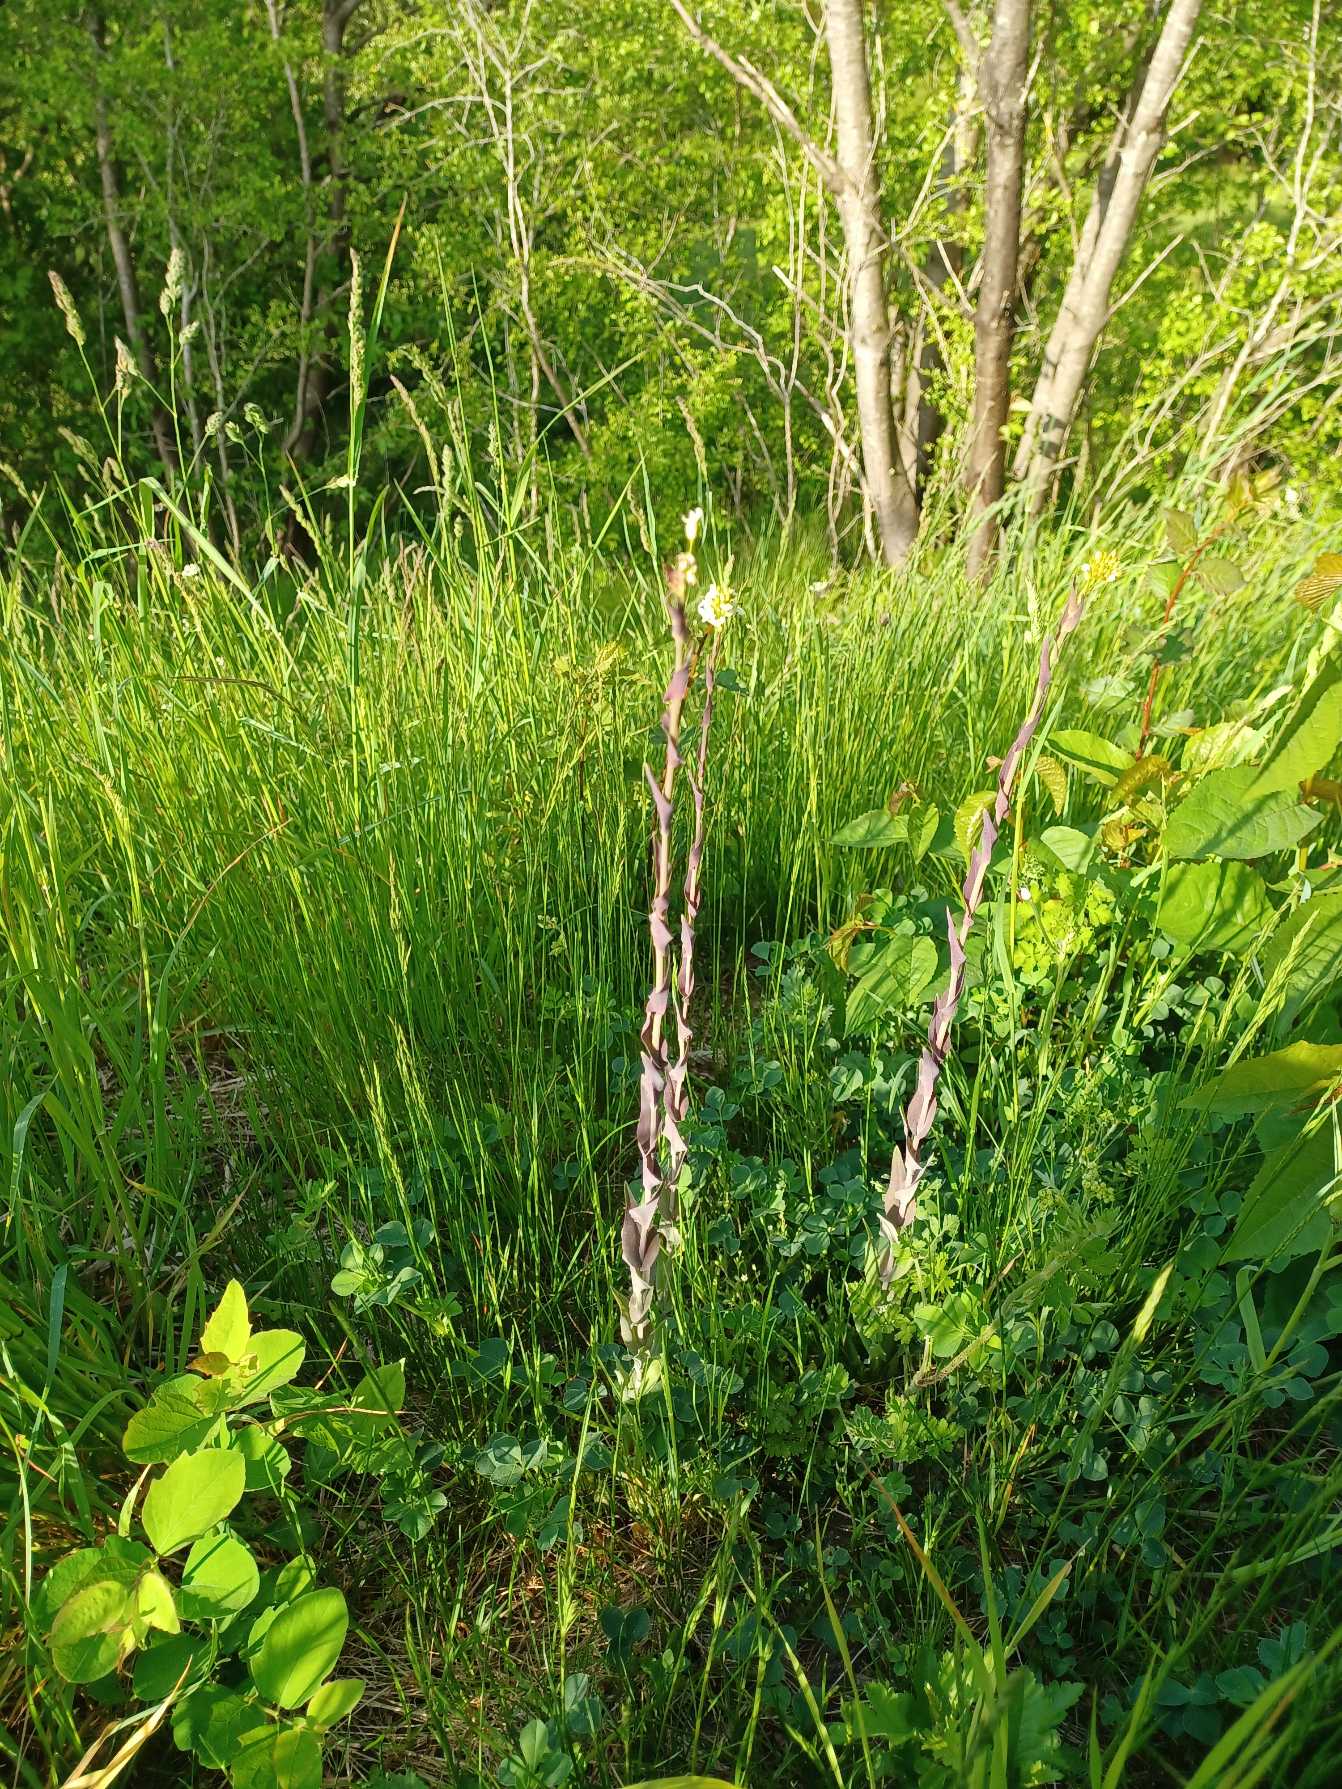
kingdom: Plantae
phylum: Tracheophyta
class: Magnoliopsida
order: Brassicales
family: Brassicaceae
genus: Turritis
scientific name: Turritis glabra
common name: Tårnurt
